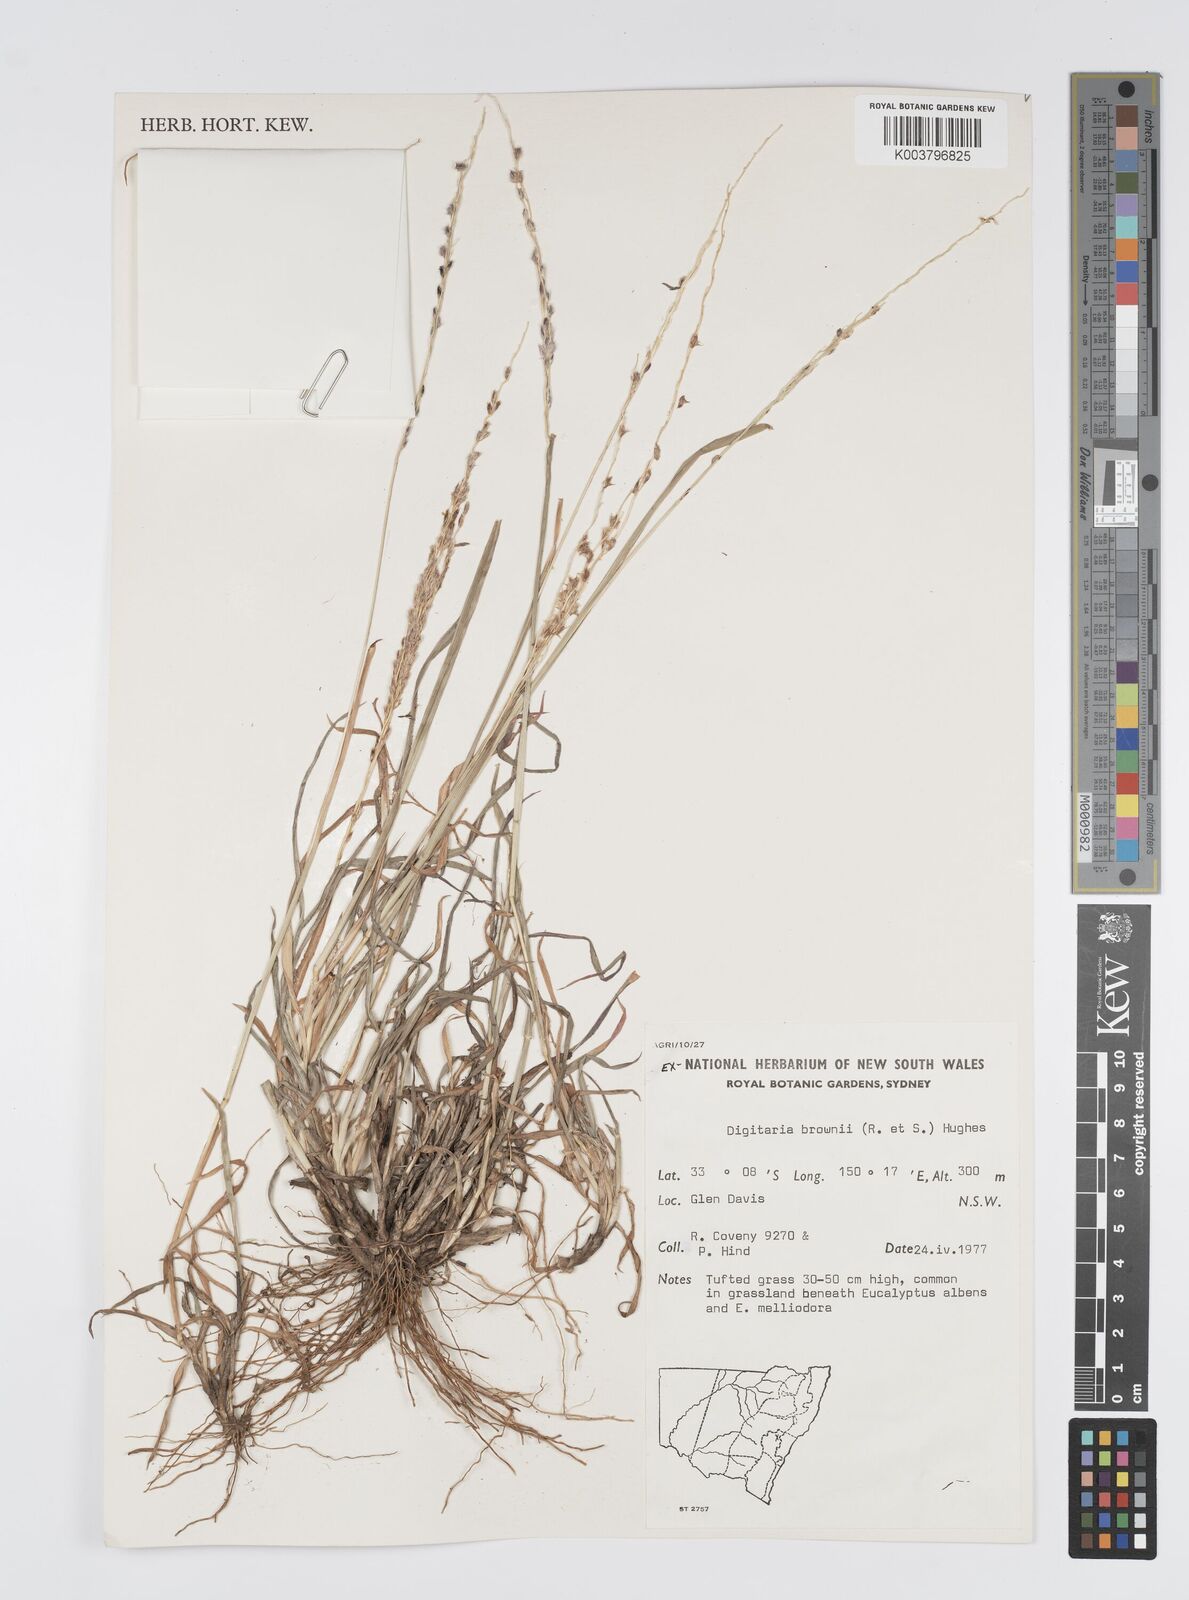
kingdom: Plantae
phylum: Tracheophyta
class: Liliopsida
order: Poales
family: Poaceae
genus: Digitaria
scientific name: Digitaria brownii
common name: Cotton grass
